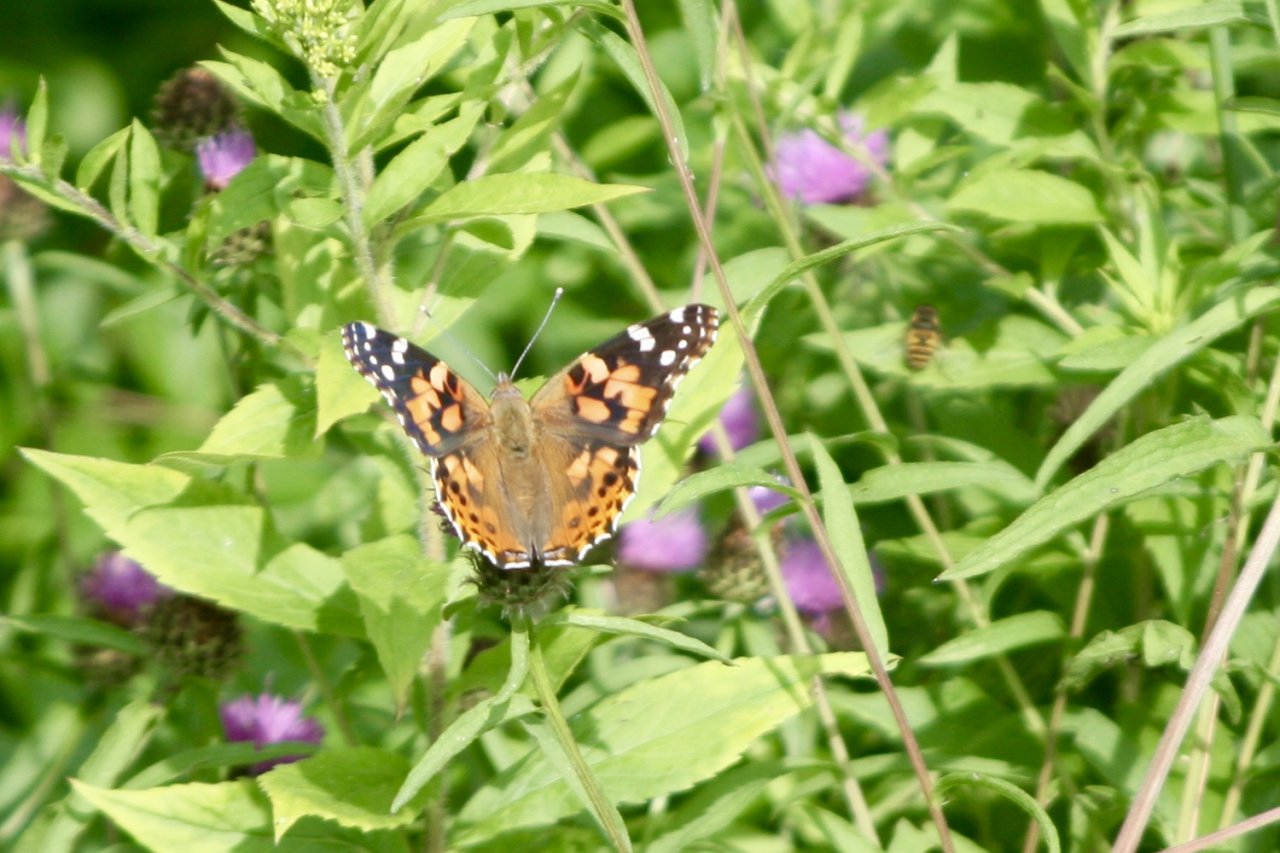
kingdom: Animalia
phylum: Arthropoda
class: Insecta
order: Lepidoptera
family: Nymphalidae
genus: Vanessa
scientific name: Vanessa cardui
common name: Painted Lady
